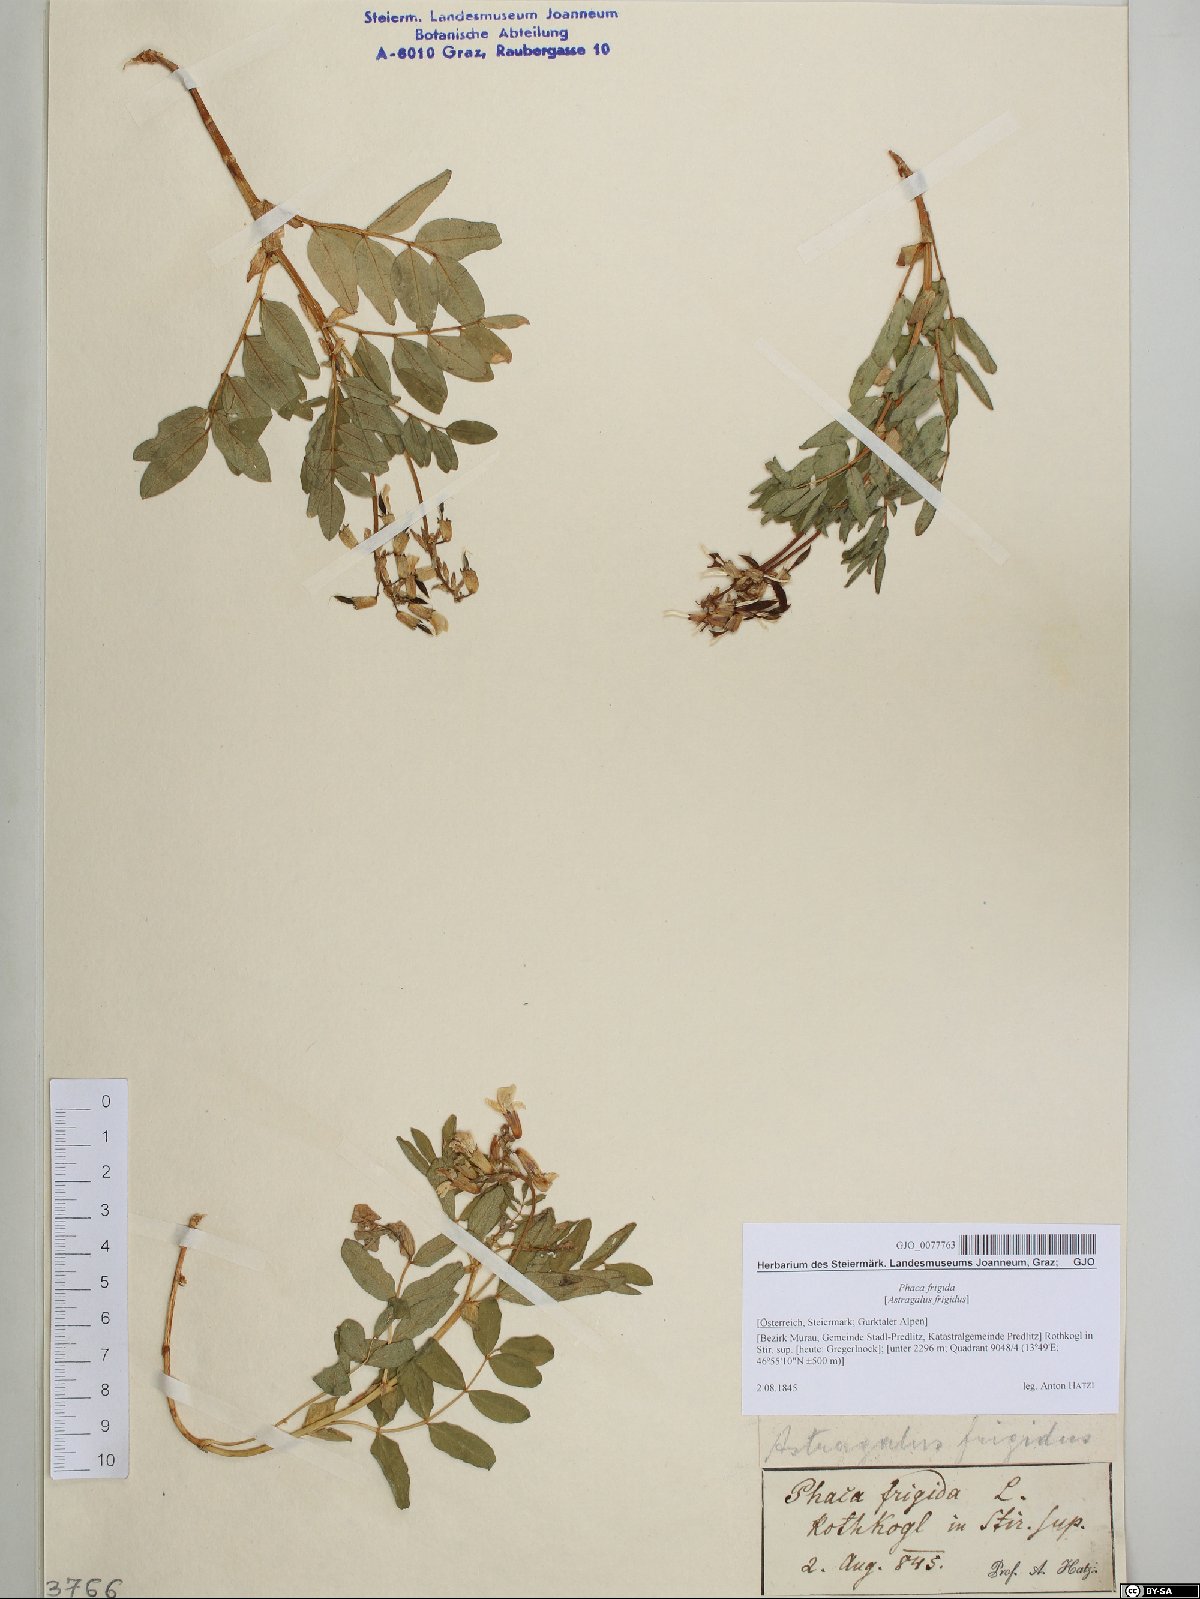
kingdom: Plantae
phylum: Tracheophyta
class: Magnoliopsida
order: Fabales
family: Fabaceae
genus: Astragalus
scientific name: Astragalus frigidus
